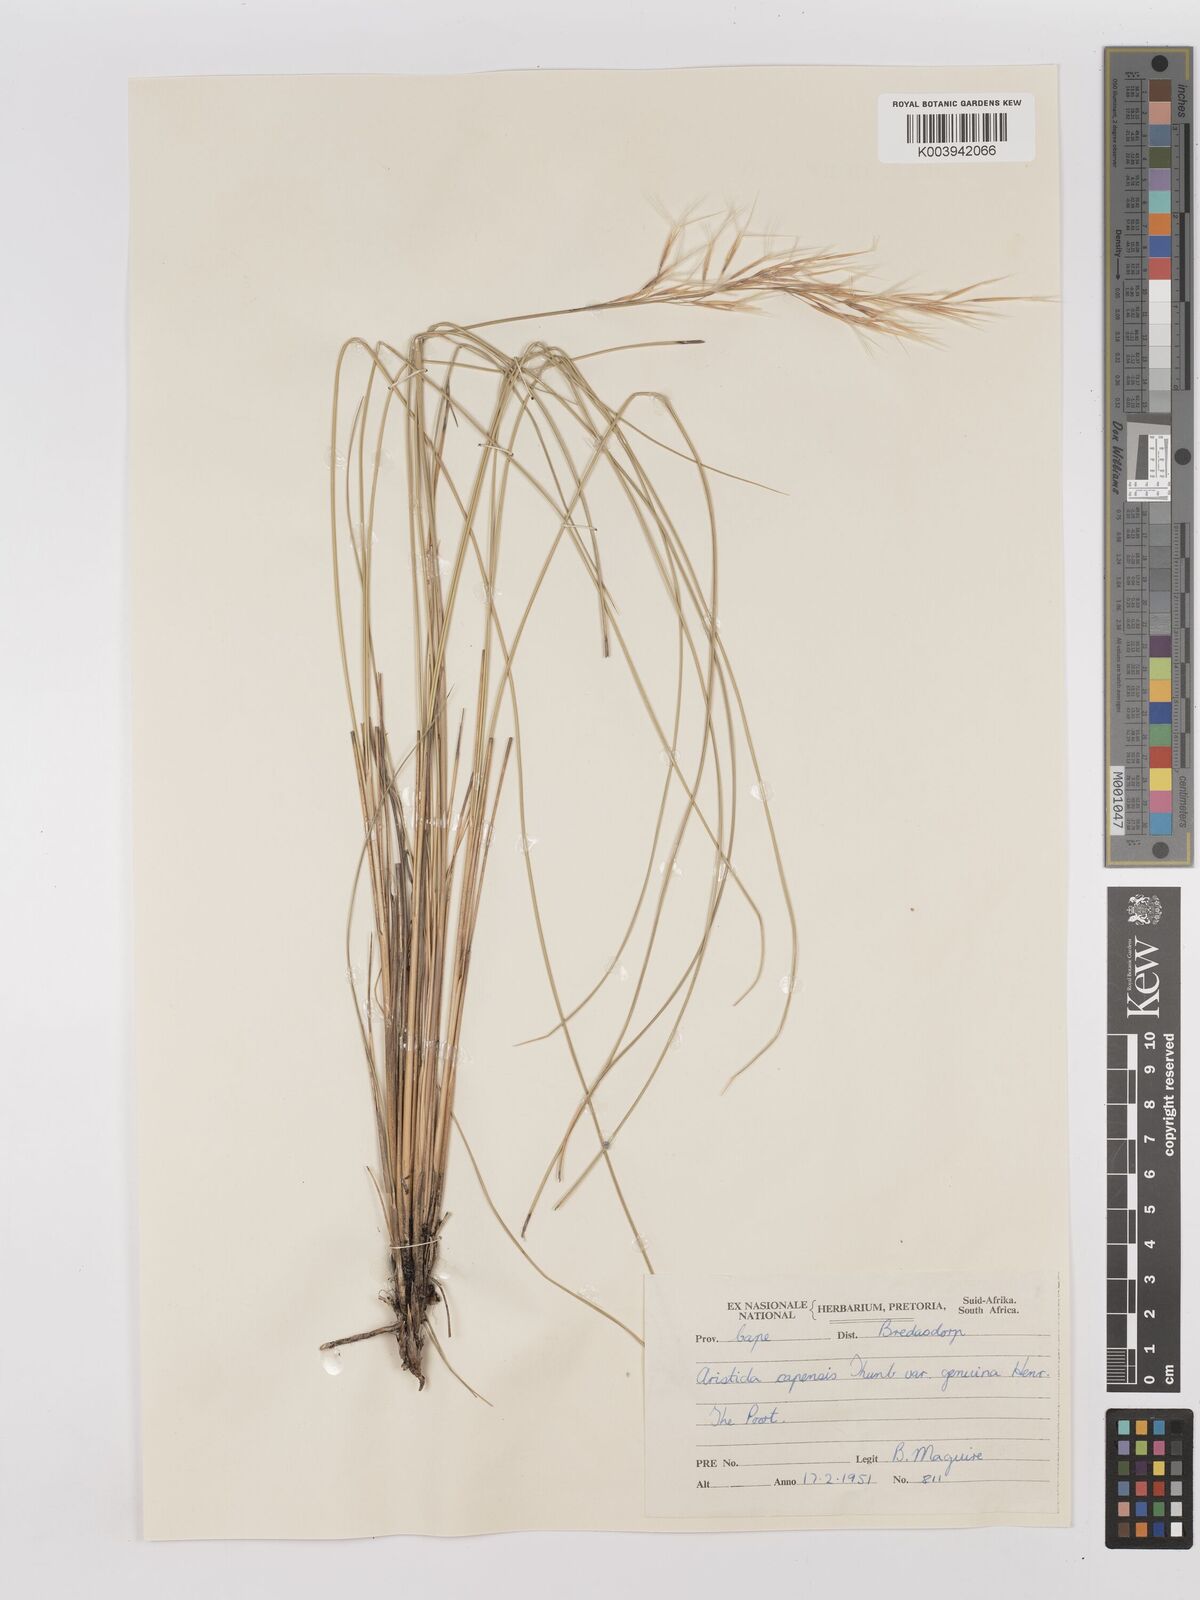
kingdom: Plantae
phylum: Tracheophyta
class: Liliopsida
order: Poales
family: Poaceae
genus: Stipagrostis
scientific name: Stipagrostis zeyheri
